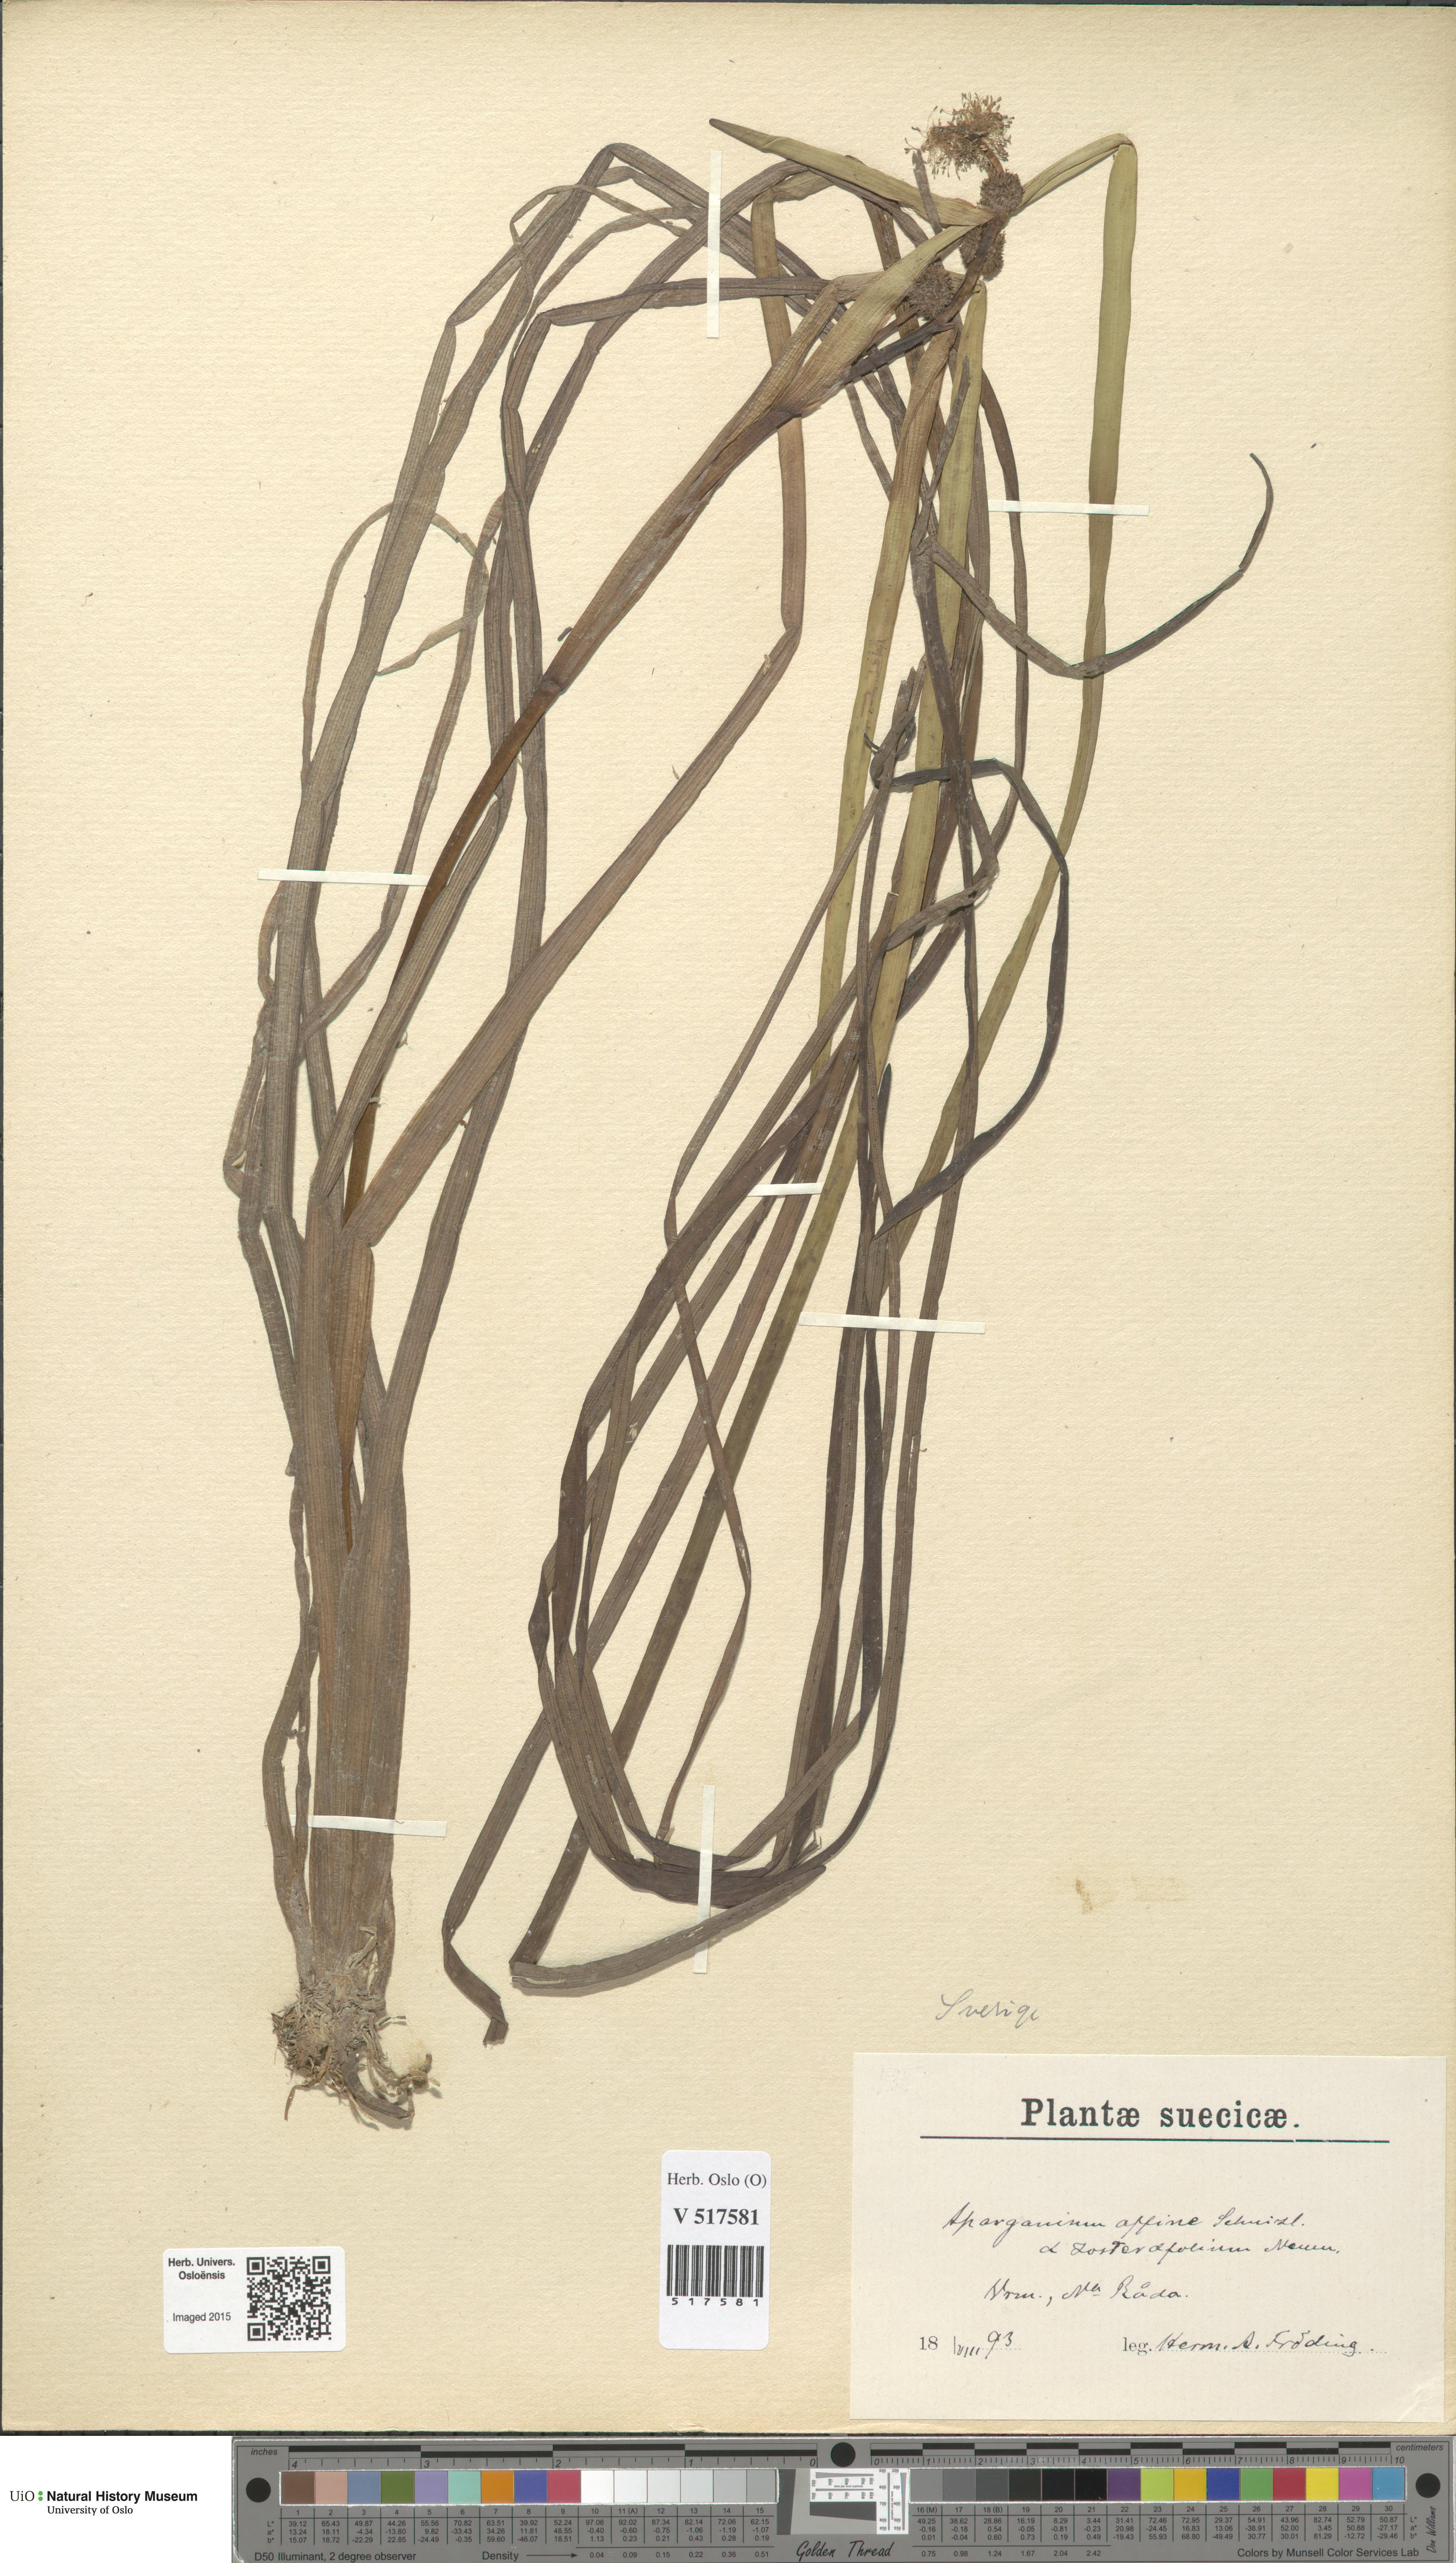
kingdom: Plantae
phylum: Tracheophyta
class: Liliopsida
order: Poales
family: Typhaceae
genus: Sparganium
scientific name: Sparganium angustifolium
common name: Floating bur-reed
